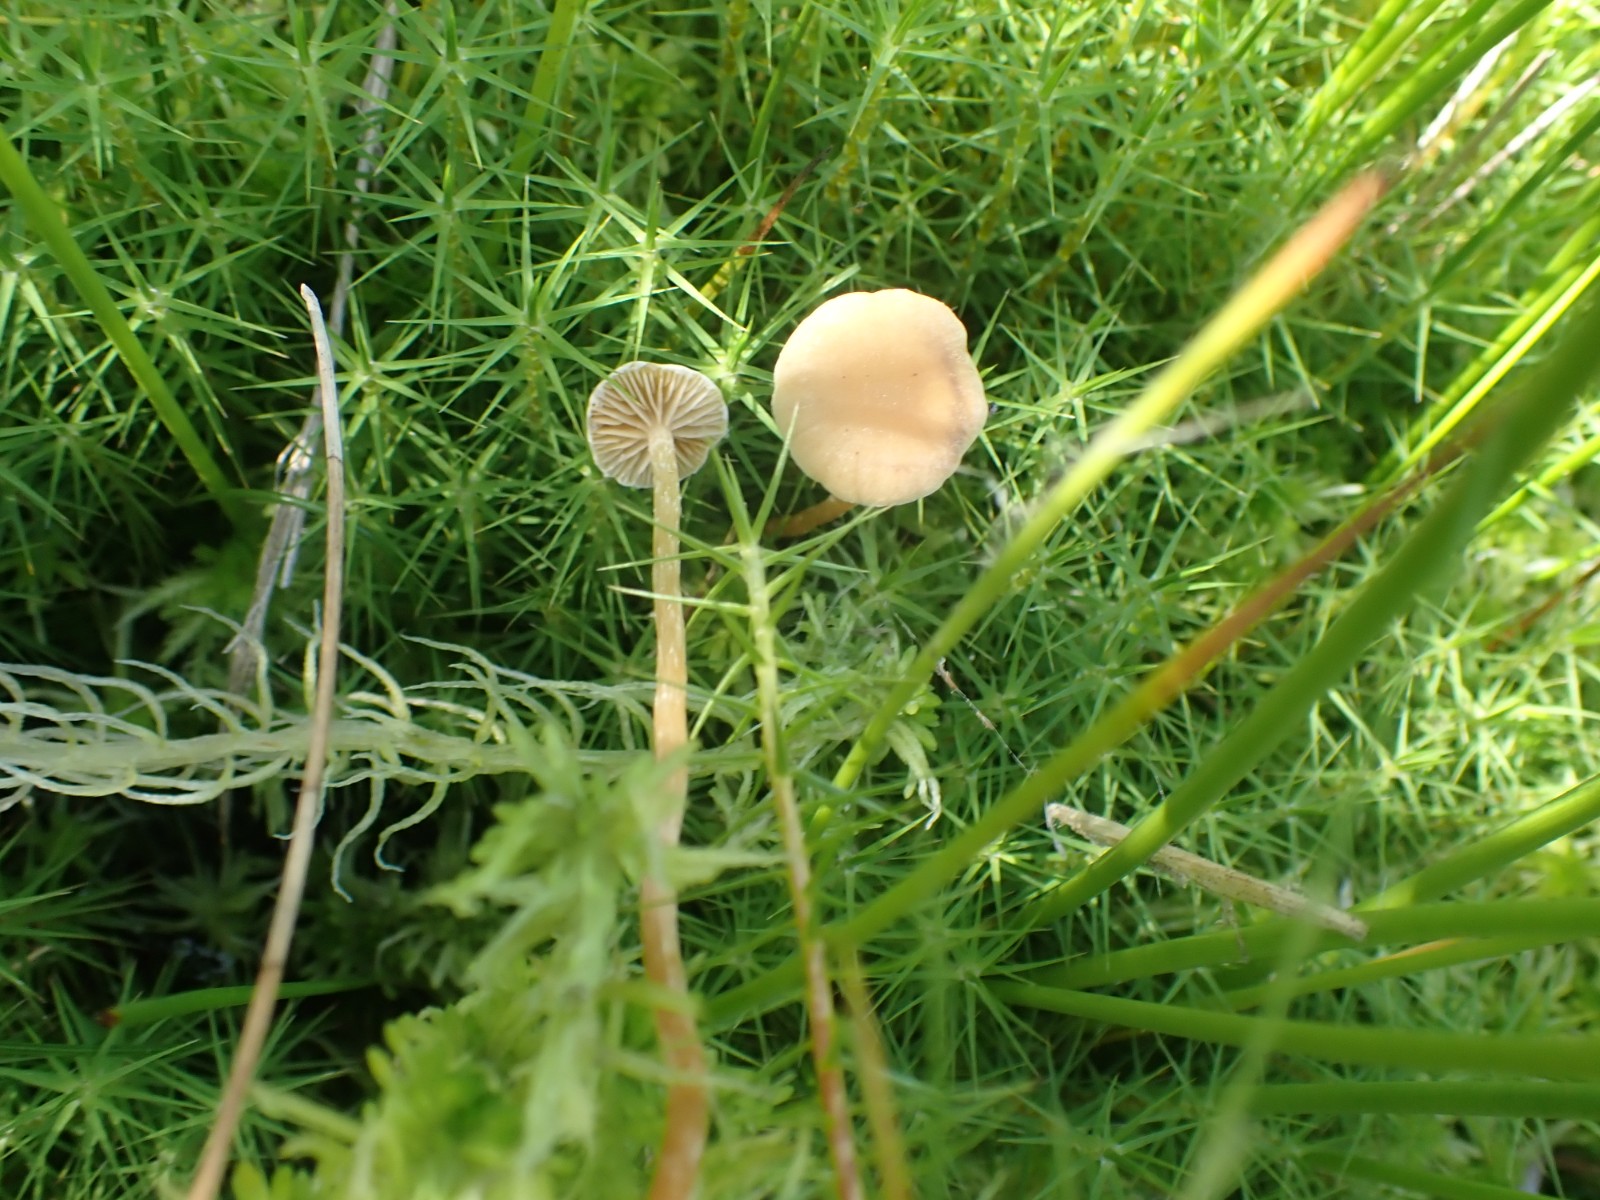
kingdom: Fungi
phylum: Basidiomycota
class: Agaricomycetes
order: Agaricales
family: Strophariaceae
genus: Hypholoma
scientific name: Hypholoma elongatum
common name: slank svovlhat
